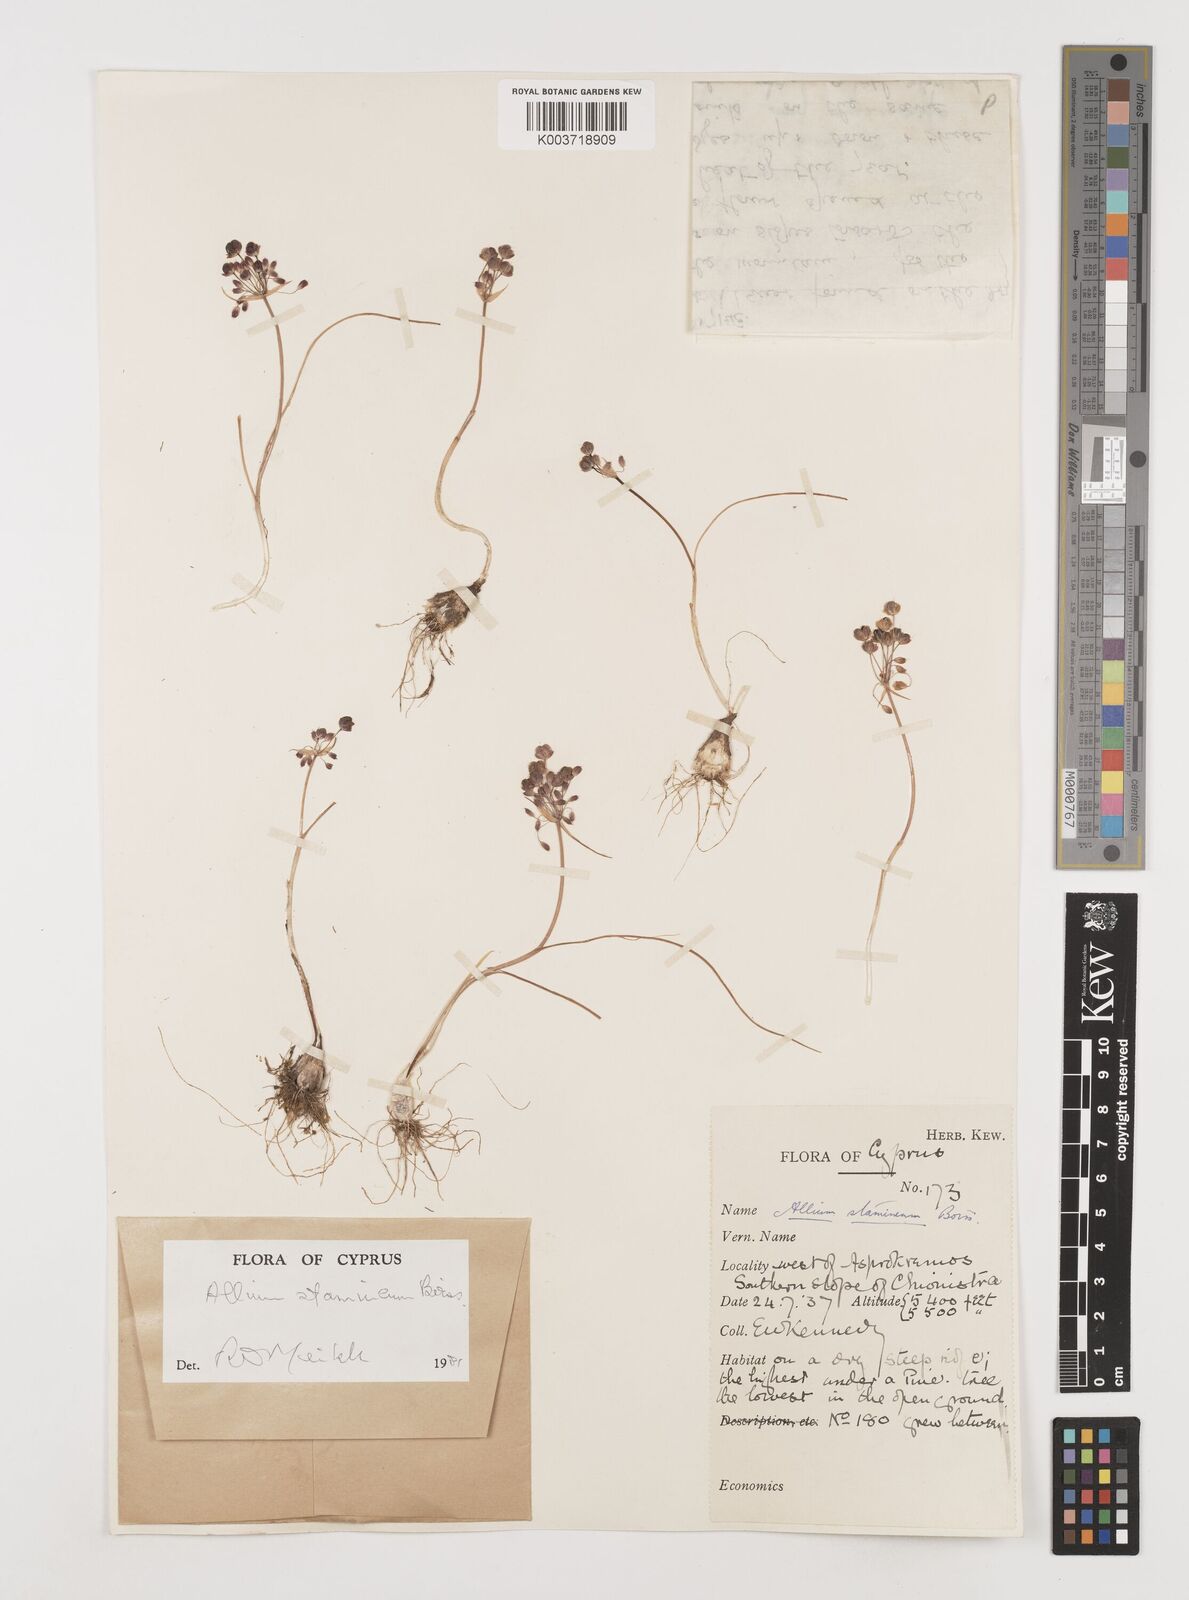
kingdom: Plantae
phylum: Tracheophyta
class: Liliopsida
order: Asparagales
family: Amaryllidaceae
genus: Allium
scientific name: Allium stamineum
